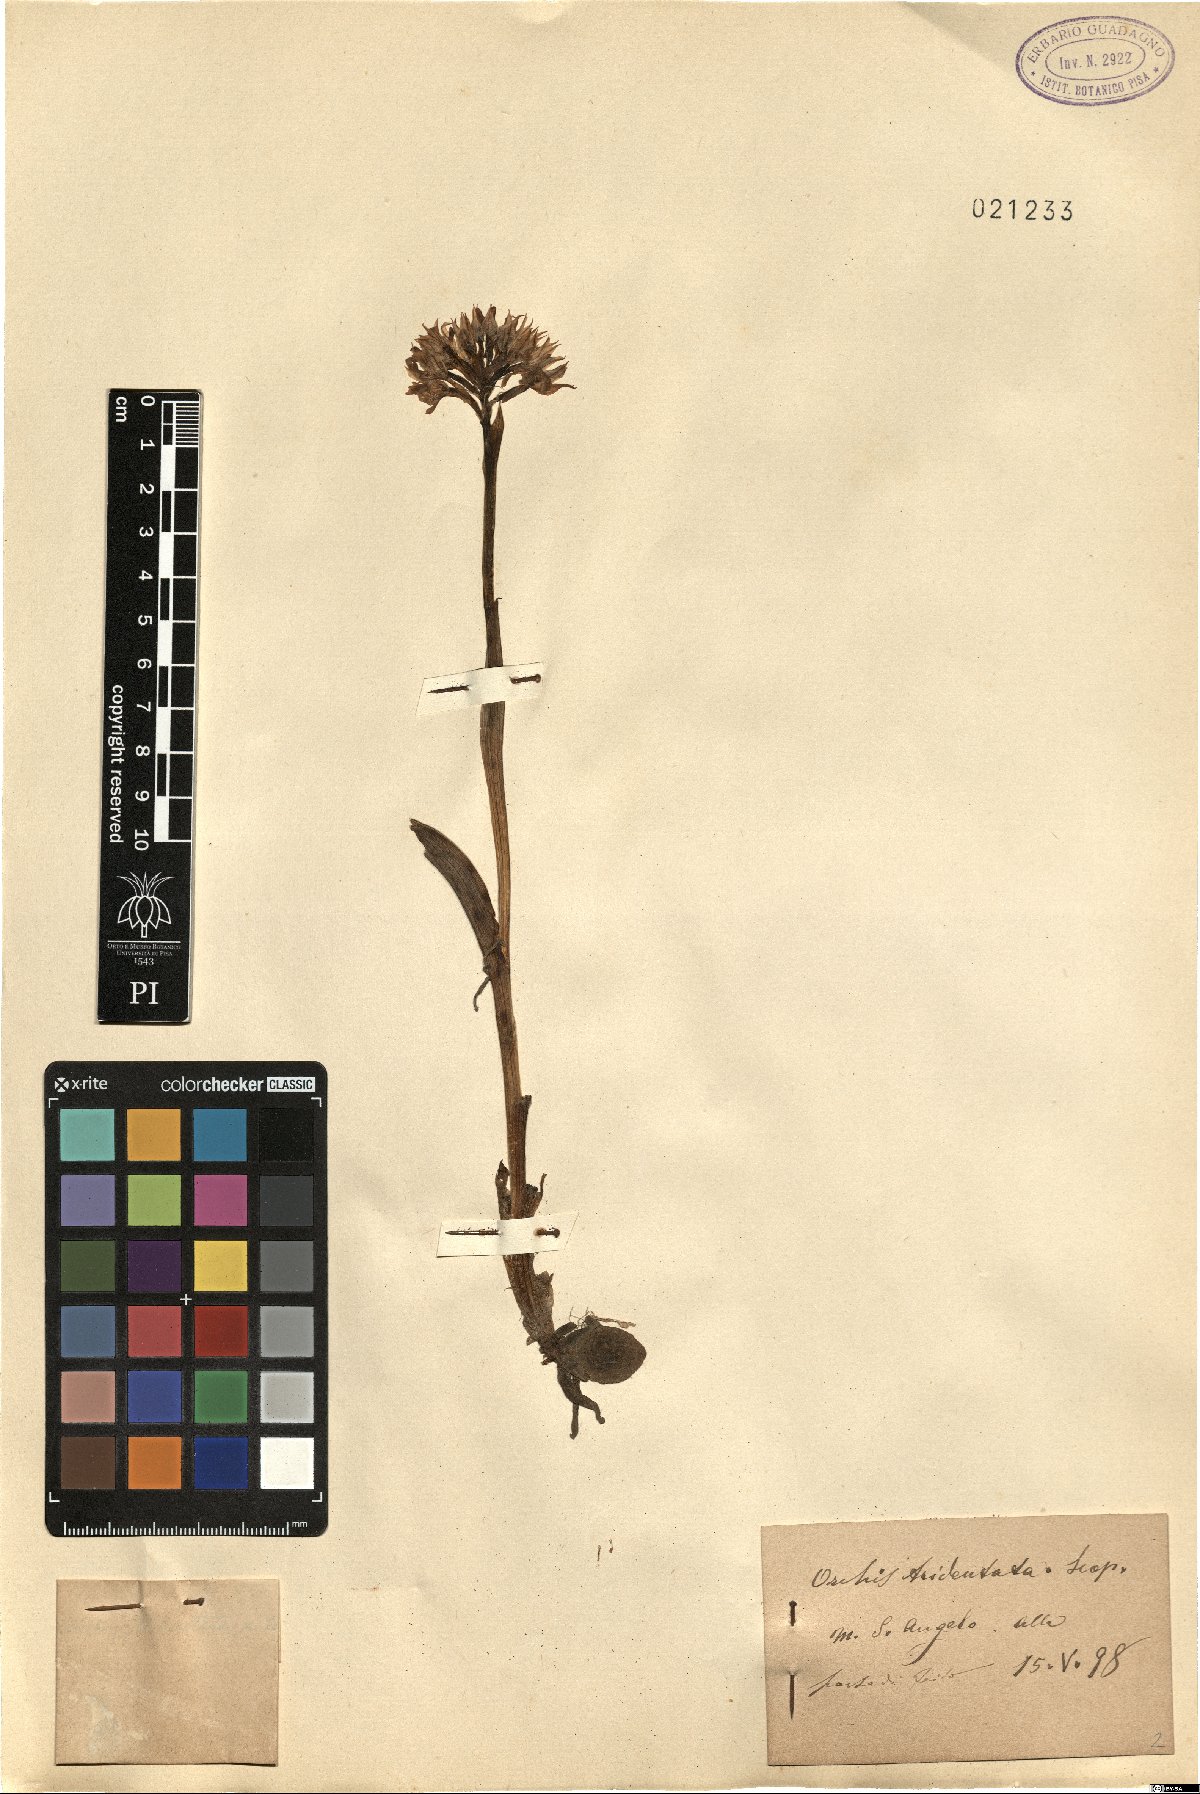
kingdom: Plantae
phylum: Tracheophyta
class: Liliopsida
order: Asparagales
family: Orchidaceae
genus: Neotinea
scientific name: Neotinea tridentata
